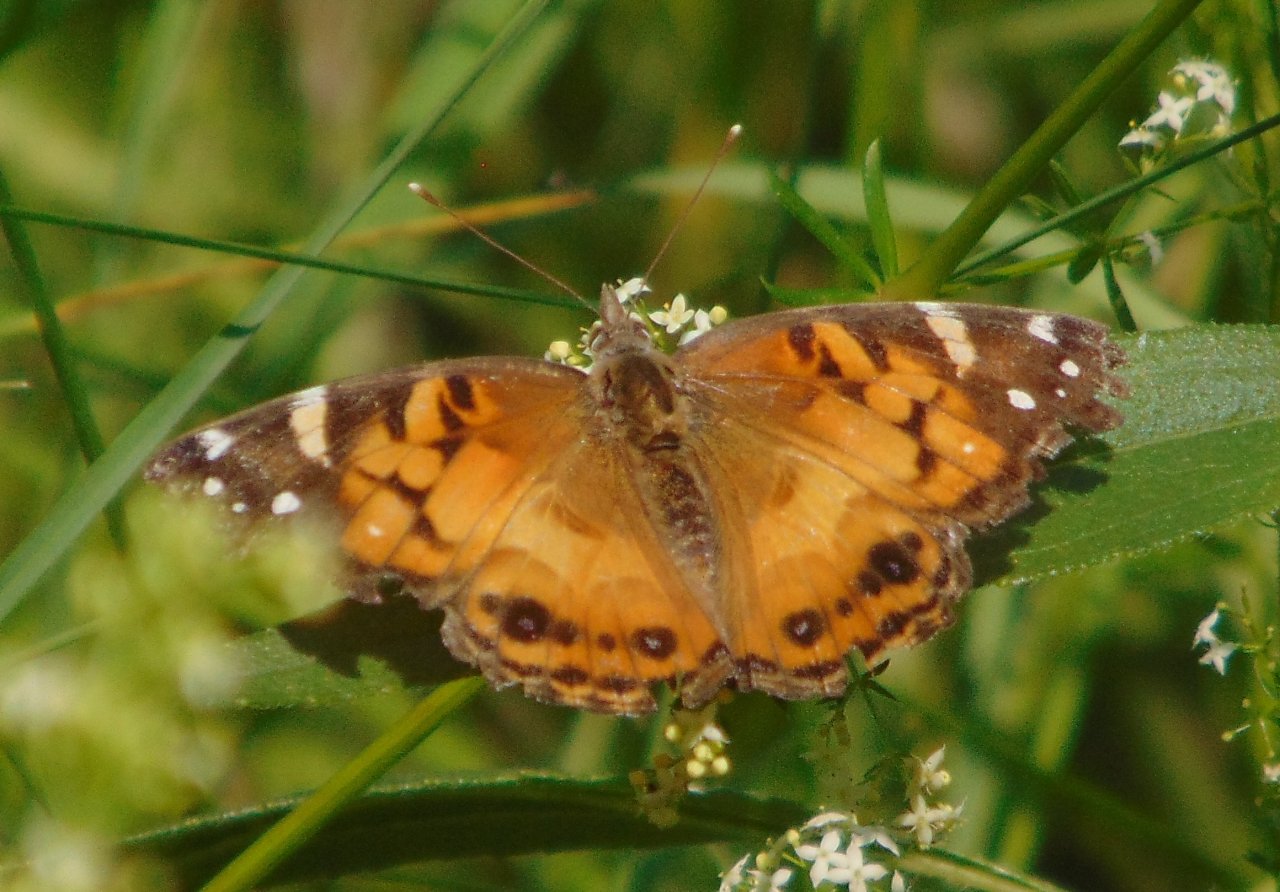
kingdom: Animalia
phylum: Arthropoda
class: Insecta
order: Lepidoptera
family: Nymphalidae
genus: Vanessa
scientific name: Vanessa virginiensis
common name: American Lady
